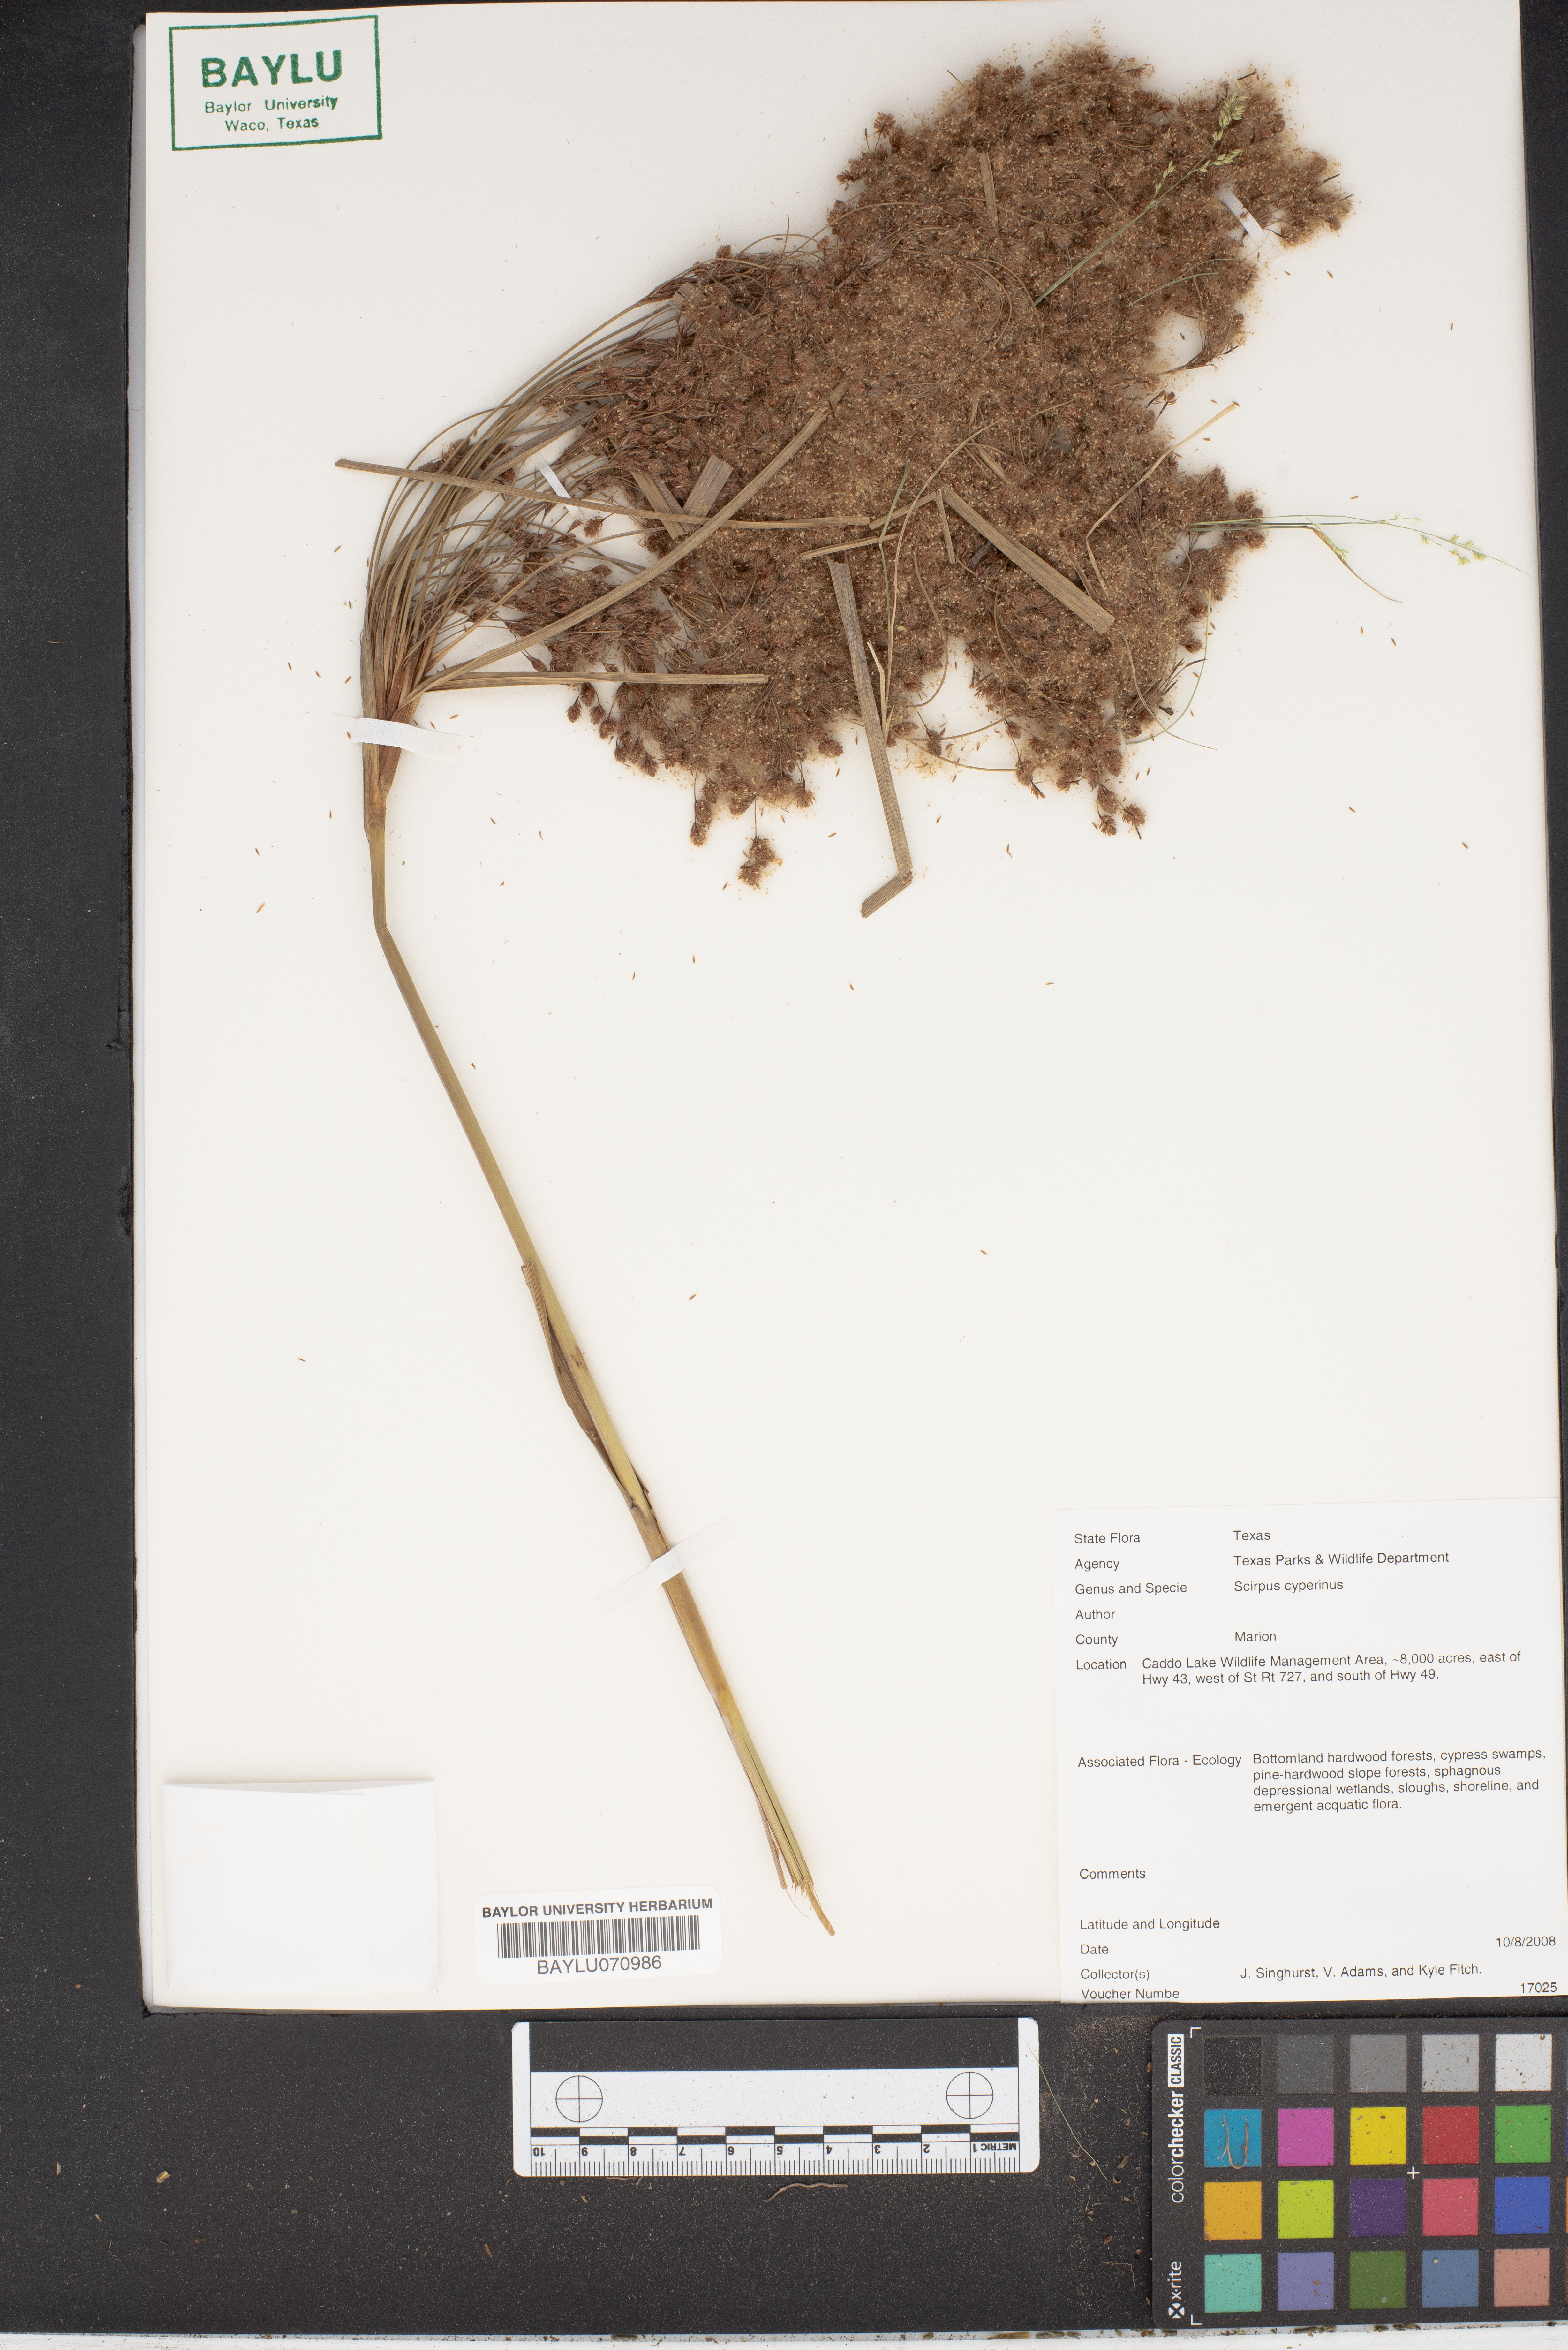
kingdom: Plantae
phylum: Tracheophyta
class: Liliopsida
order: Poales
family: Cyperaceae
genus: Scirpus
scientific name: Scirpus cyperinus
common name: Black-sheathed bulrush
